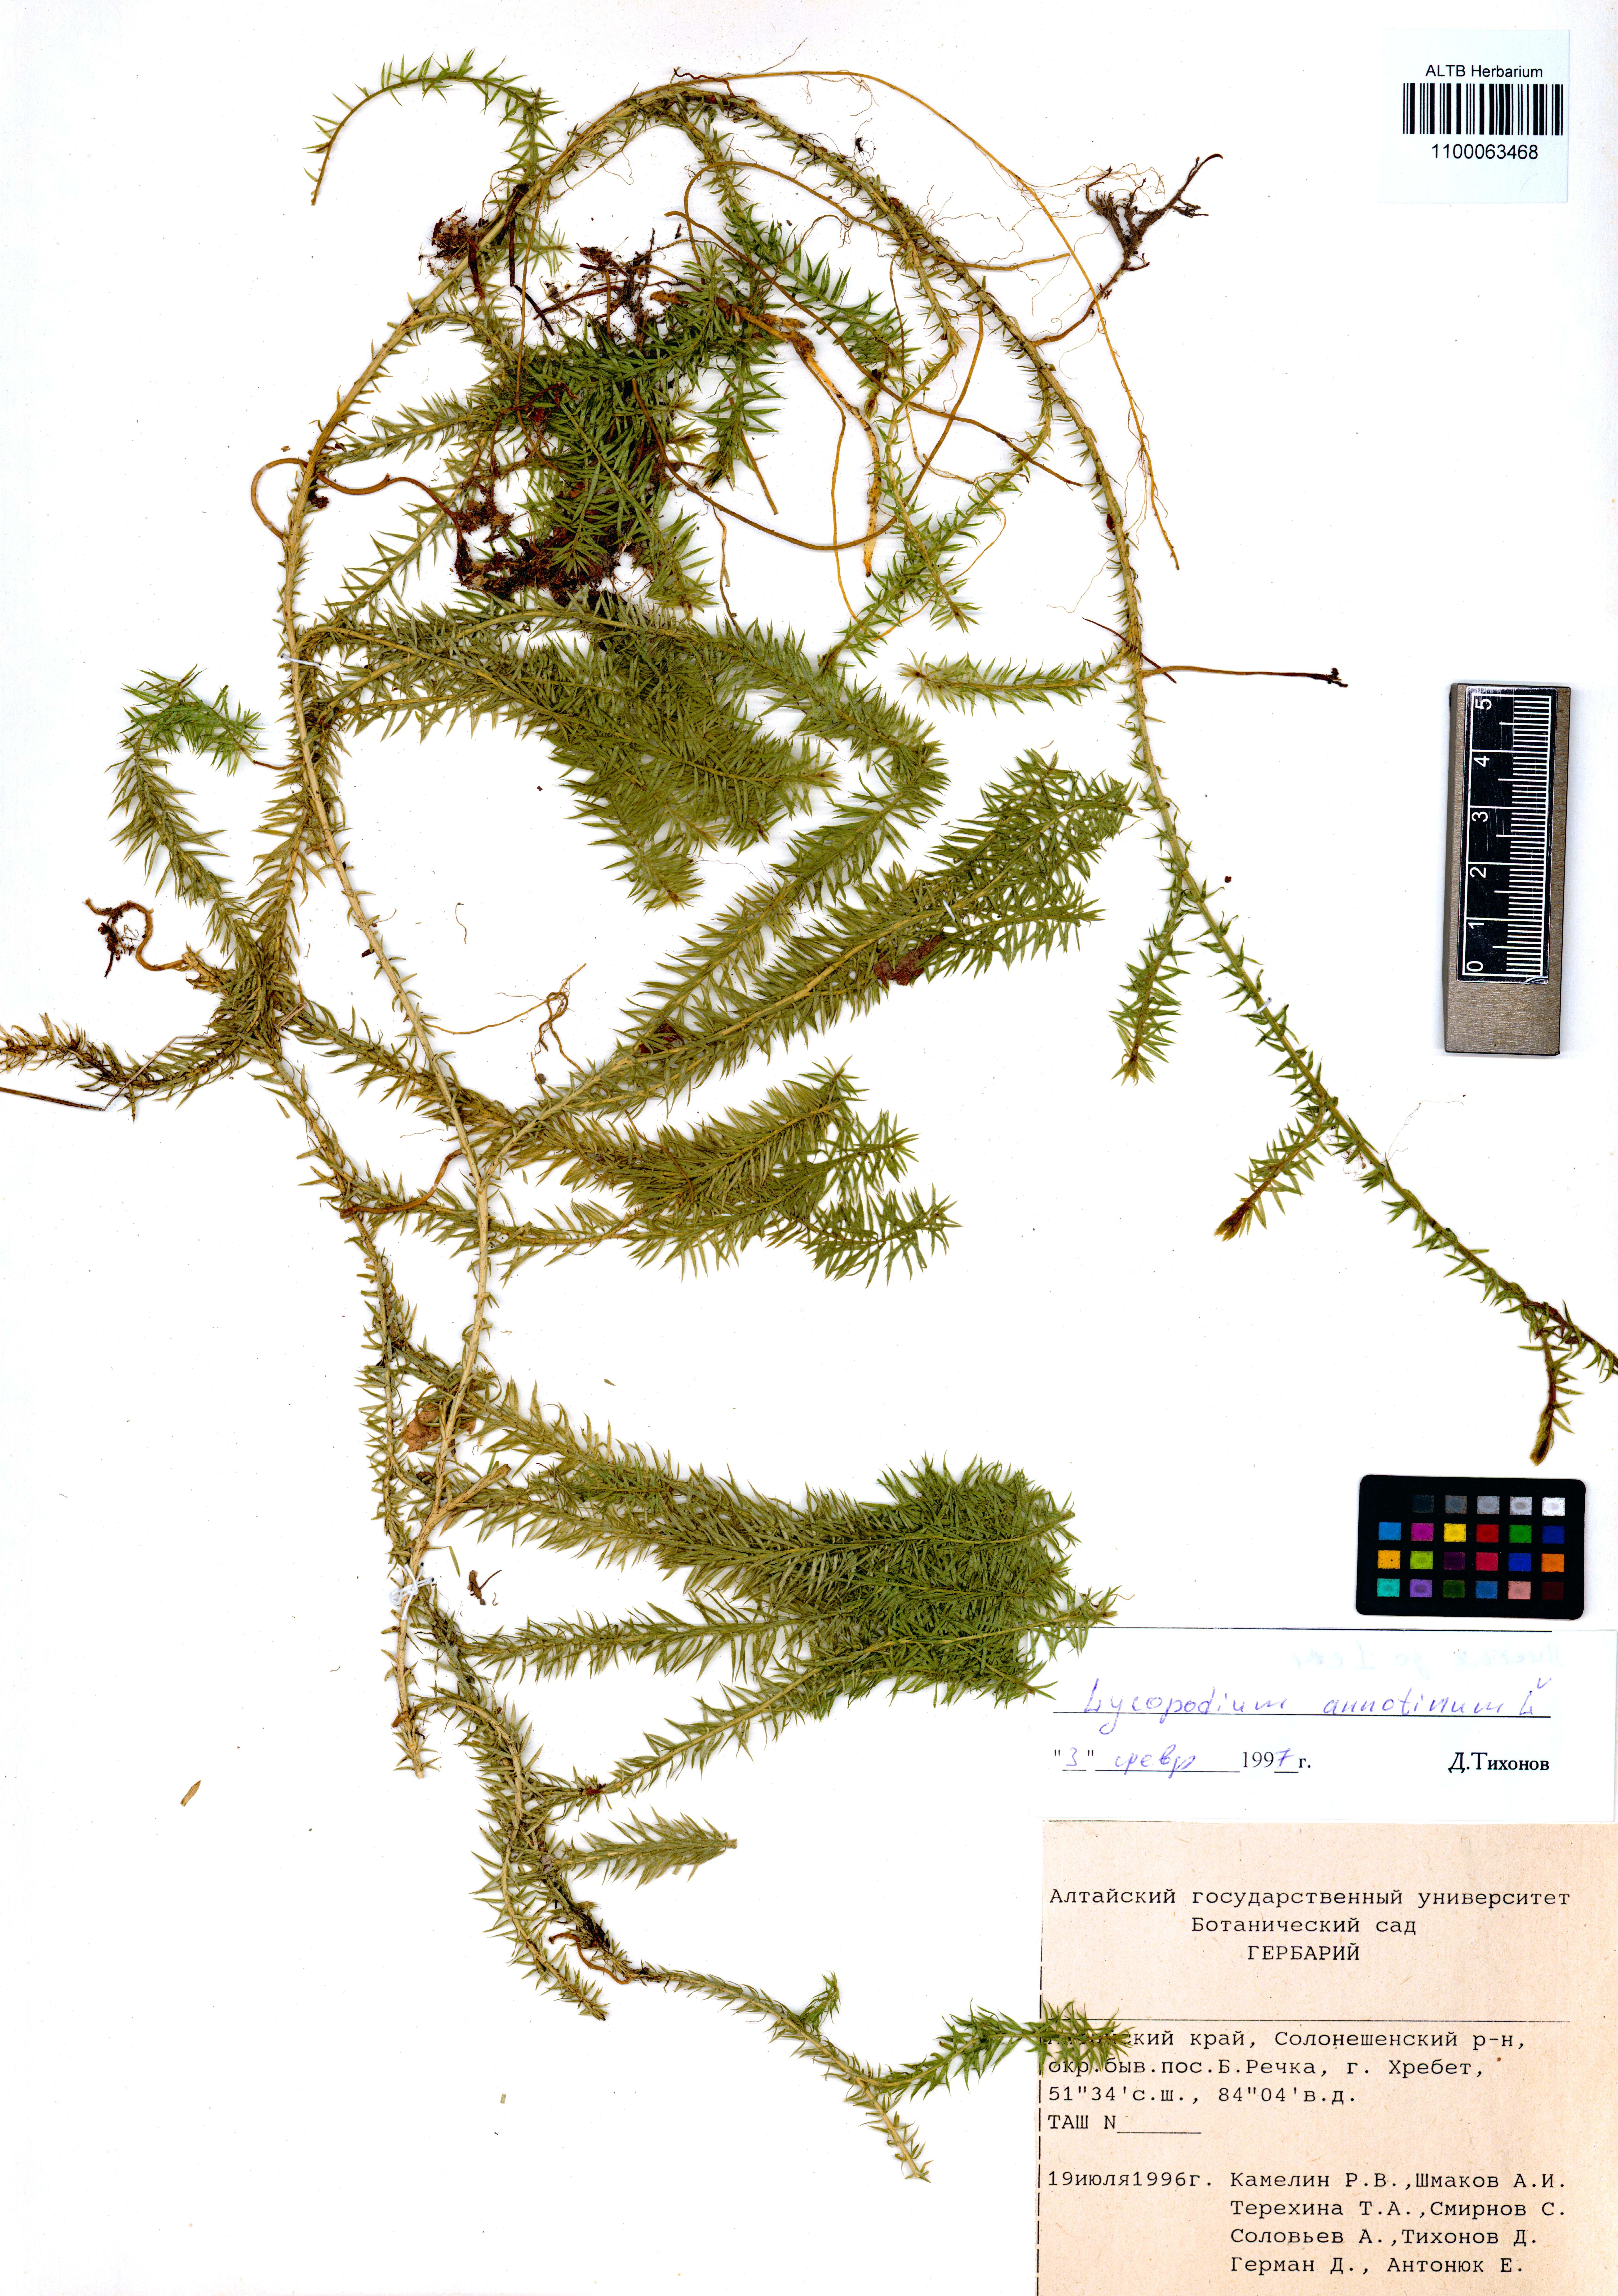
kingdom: Plantae
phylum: Tracheophyta
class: Lycopodiopsida
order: Lycopodiales
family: Lycopodiaceae
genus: Spinulum
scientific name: Spinulum annotinum
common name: Interrupted club-moss
